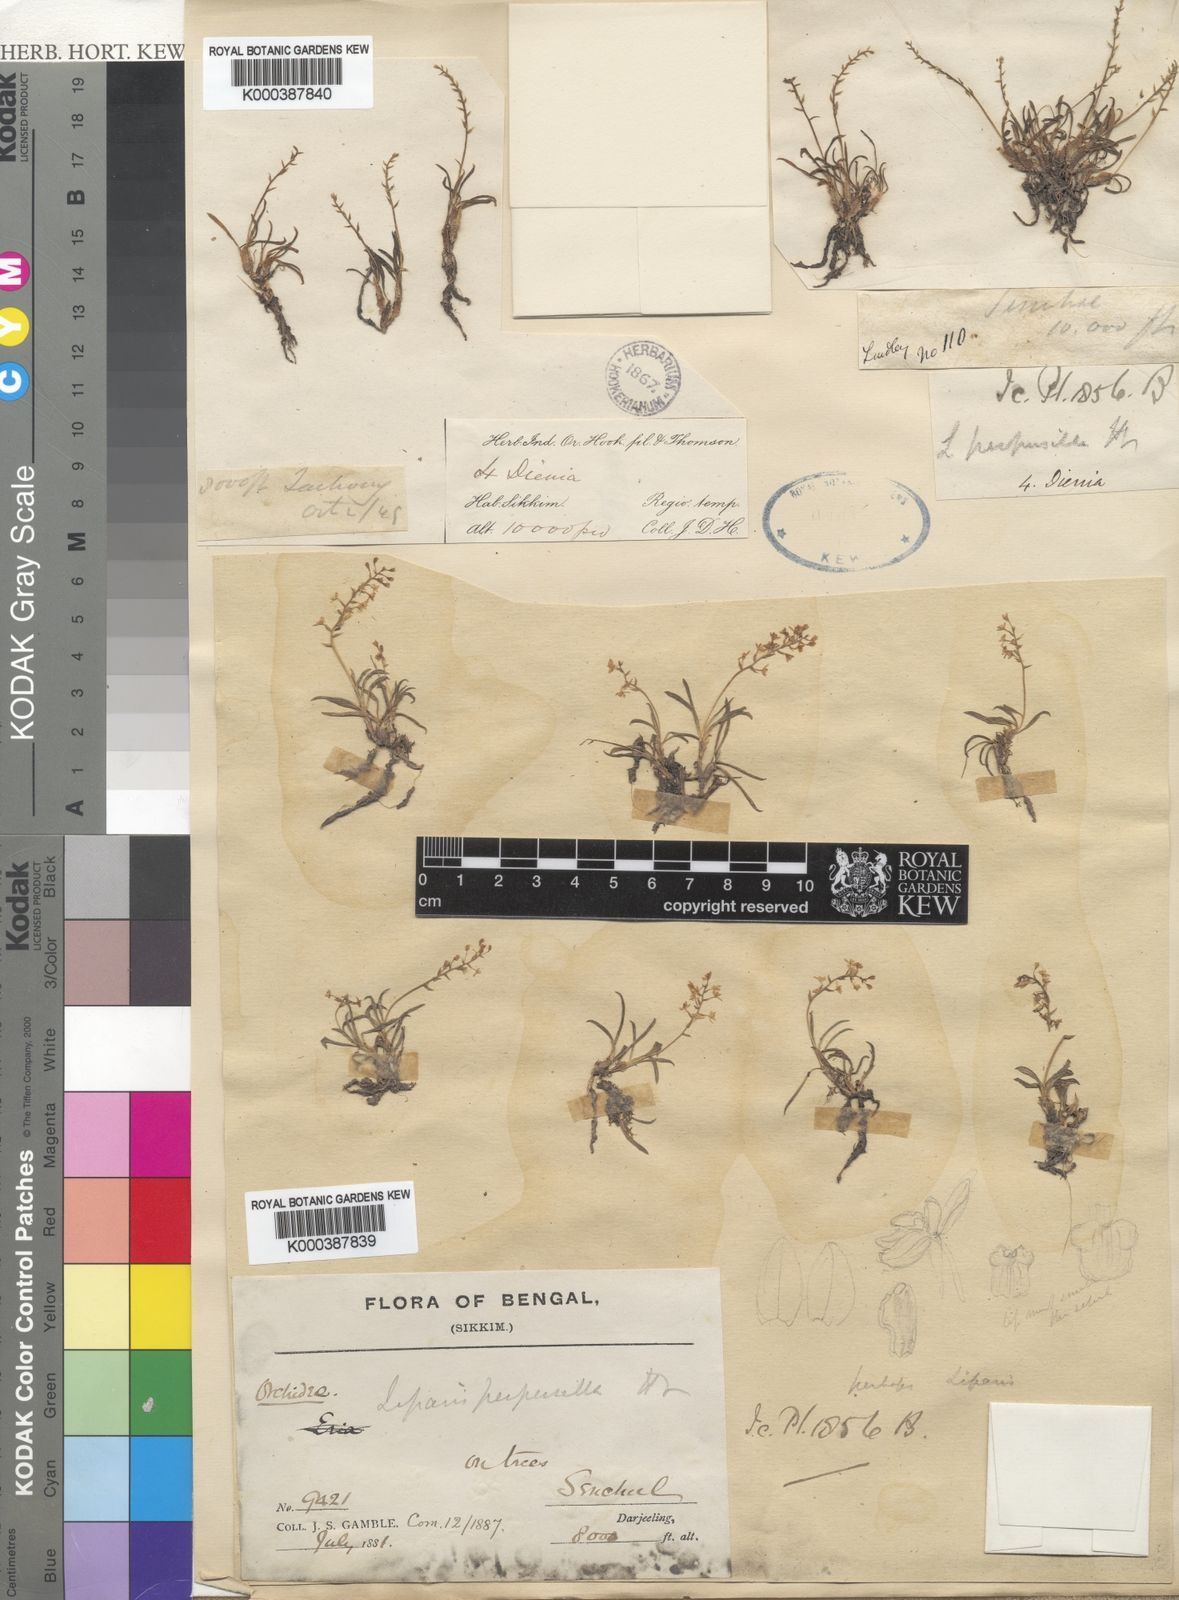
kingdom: Plantae
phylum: Tracheophyta
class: Liliopsida
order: Asparagales
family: Orchidaceae
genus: Liparis
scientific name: Liparis perpusilla
